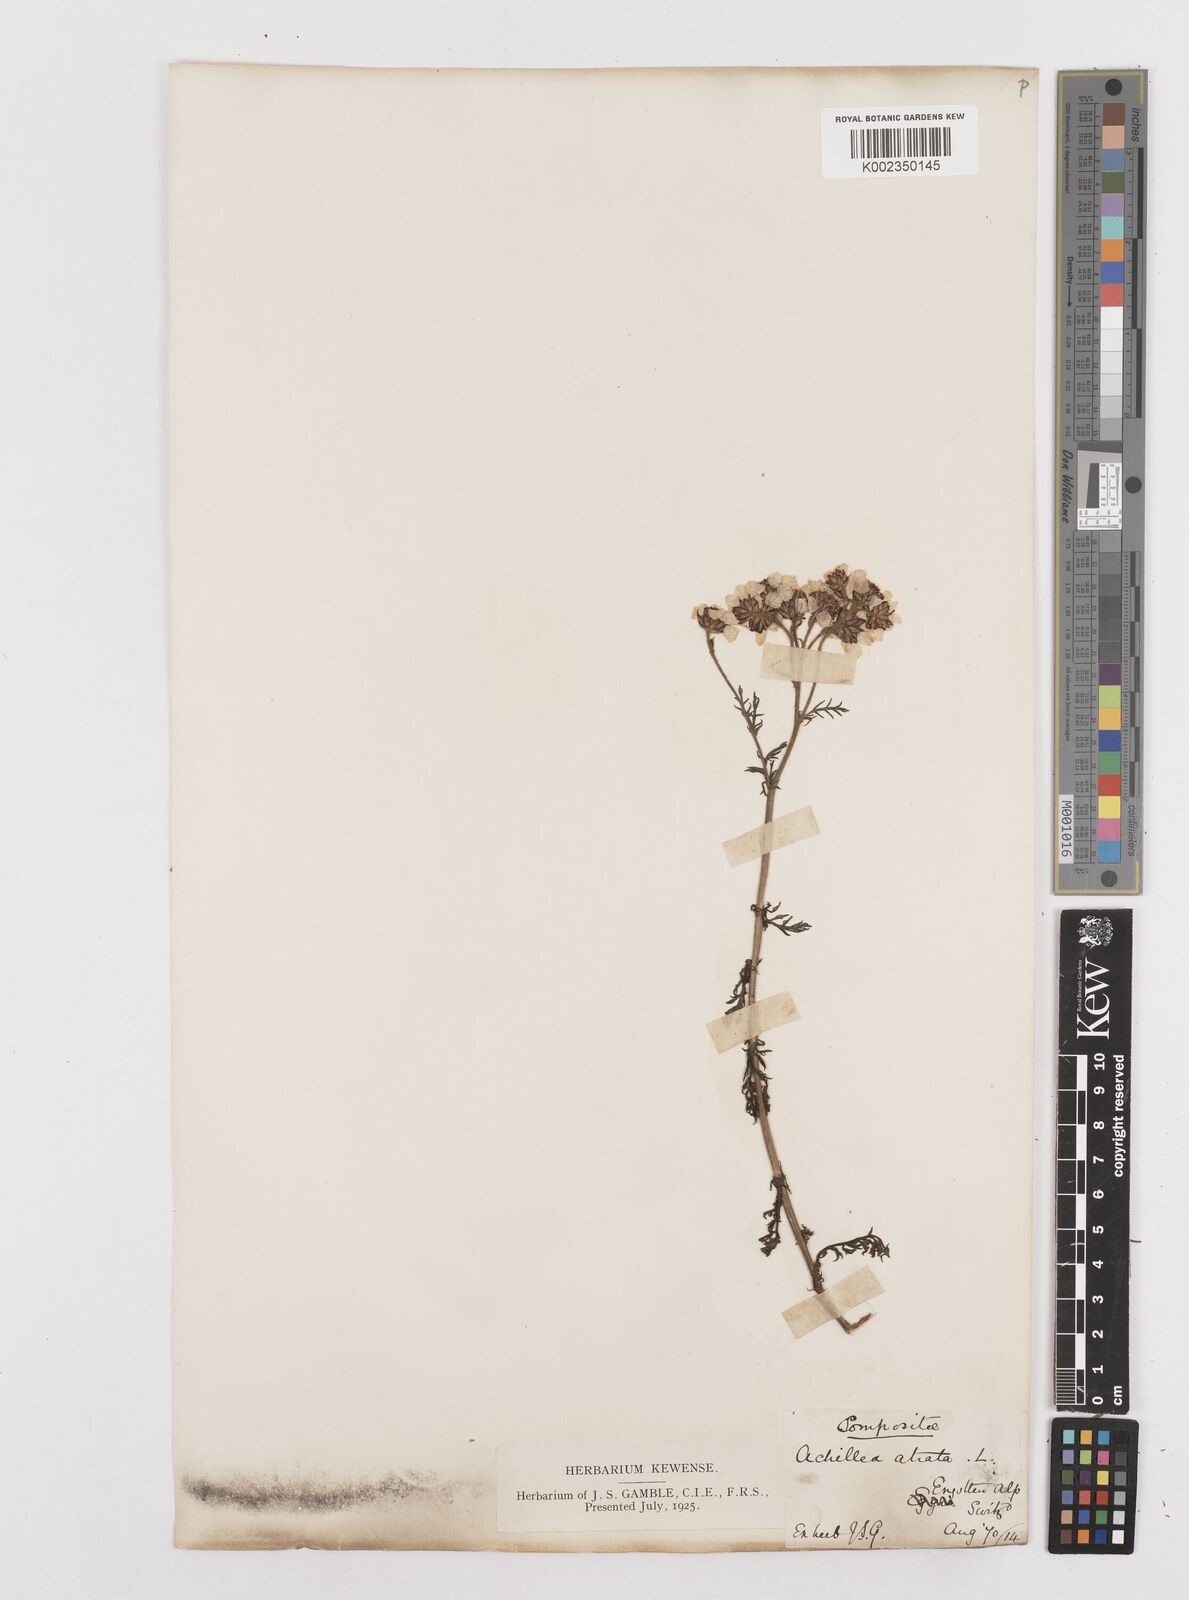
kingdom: Plantae
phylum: Tracheophyta
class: Magnoliopsida
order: Asterales
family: Asteraceae
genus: Achillea
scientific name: Achillea atrata
